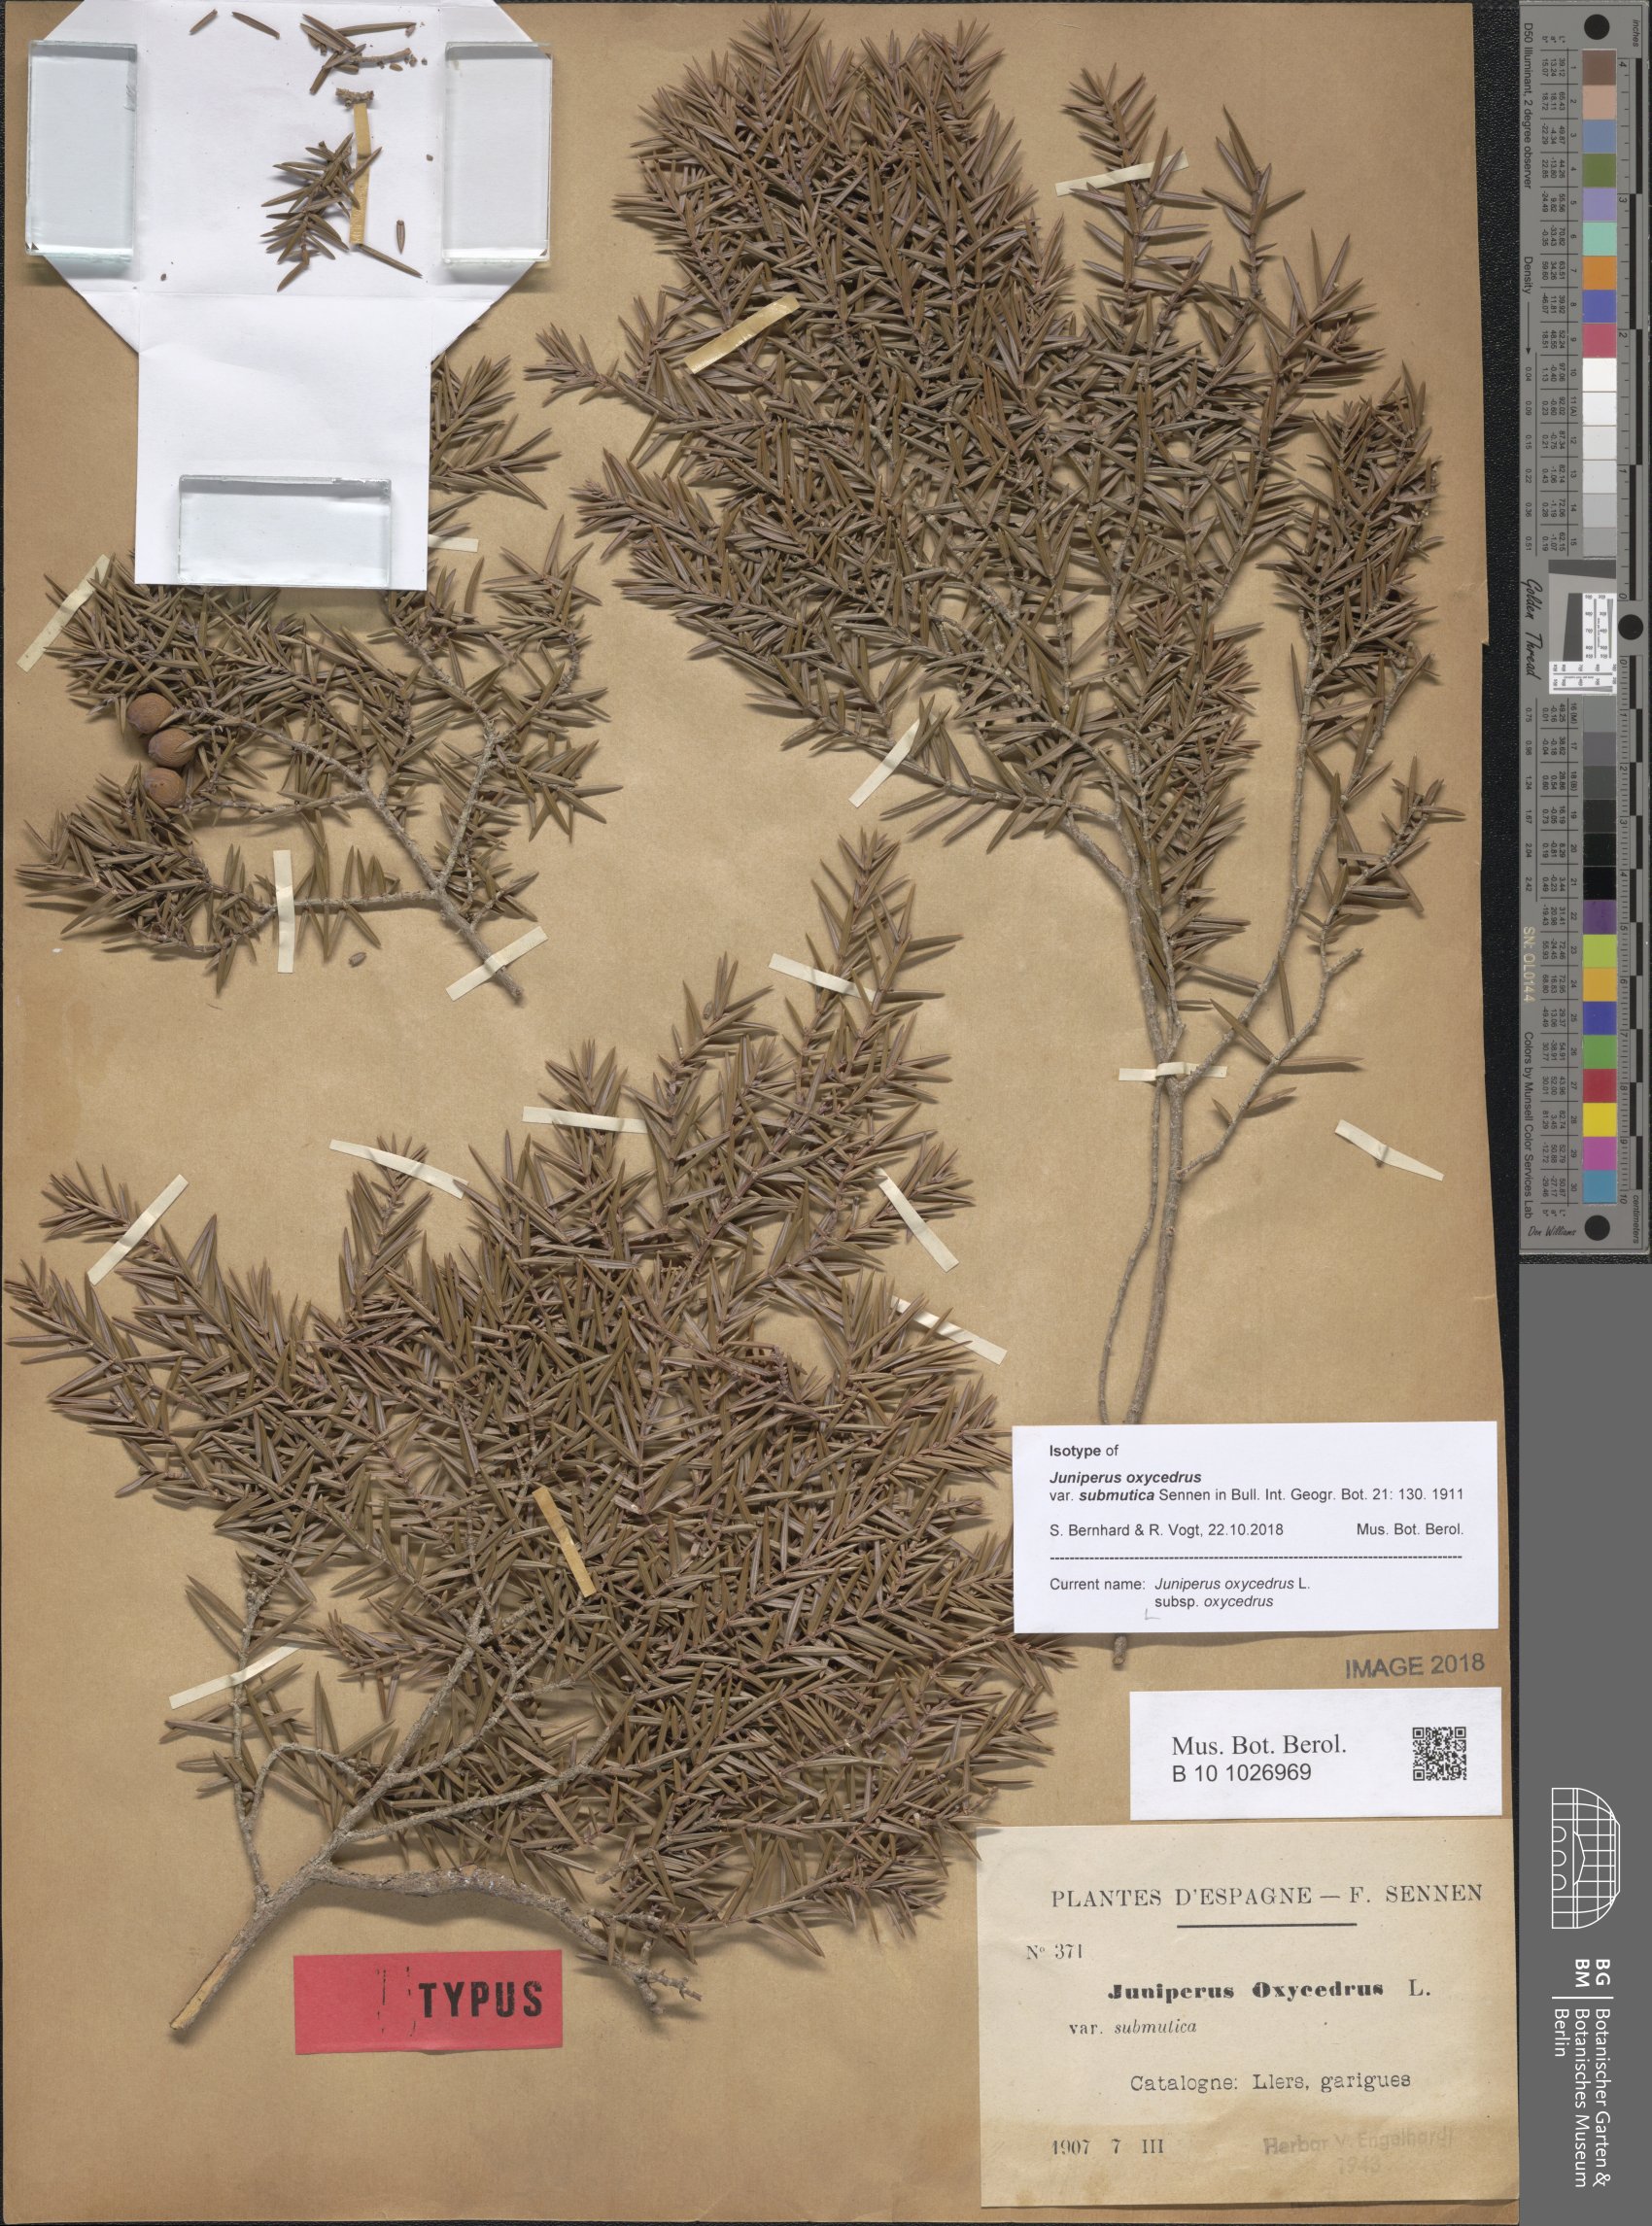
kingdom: Plantae
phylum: Tracheophyta
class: Pinopsida
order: Pinales
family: Cupressaceae
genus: Juniperus
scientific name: Juniperus oxycedrus
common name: Prickly juniper
